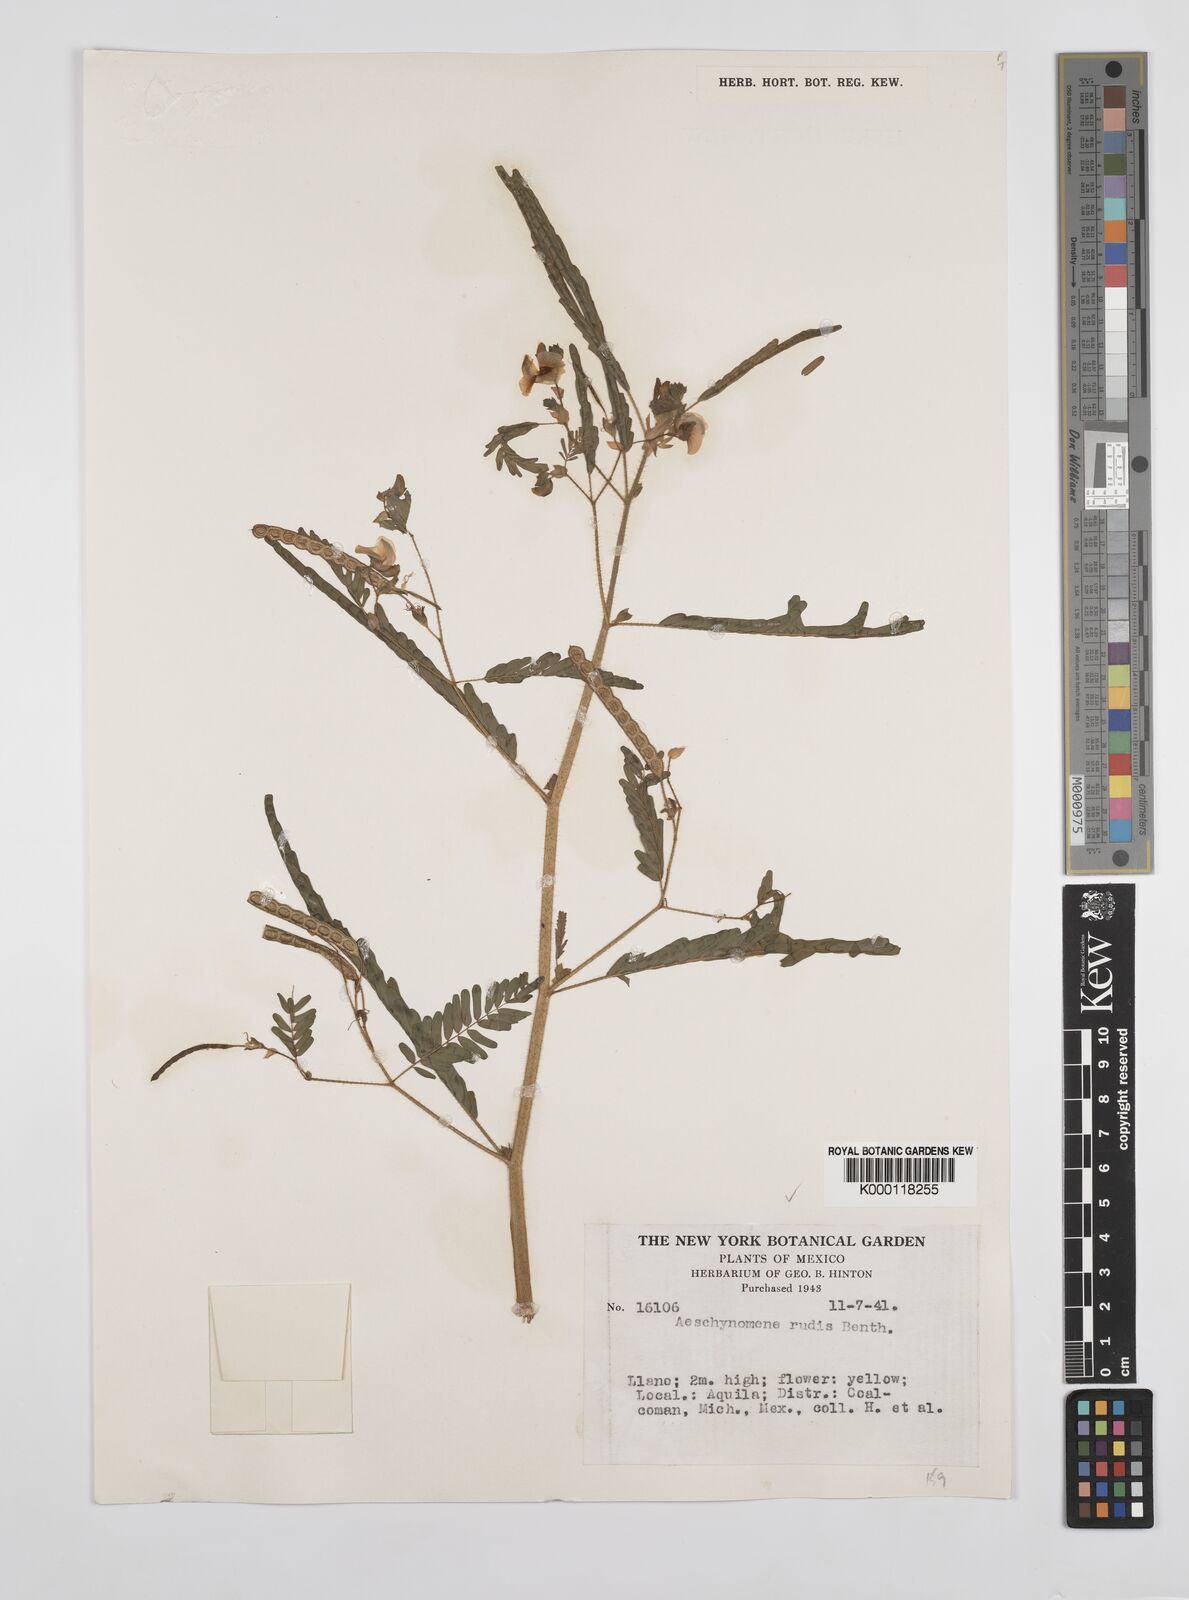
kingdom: Plantae
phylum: Tracheophyta
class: Magnoliopsida
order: Fabales
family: Fabaceae
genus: Aeschynomene
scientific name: Aeschynomene rudis
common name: Rough joint-vetch
